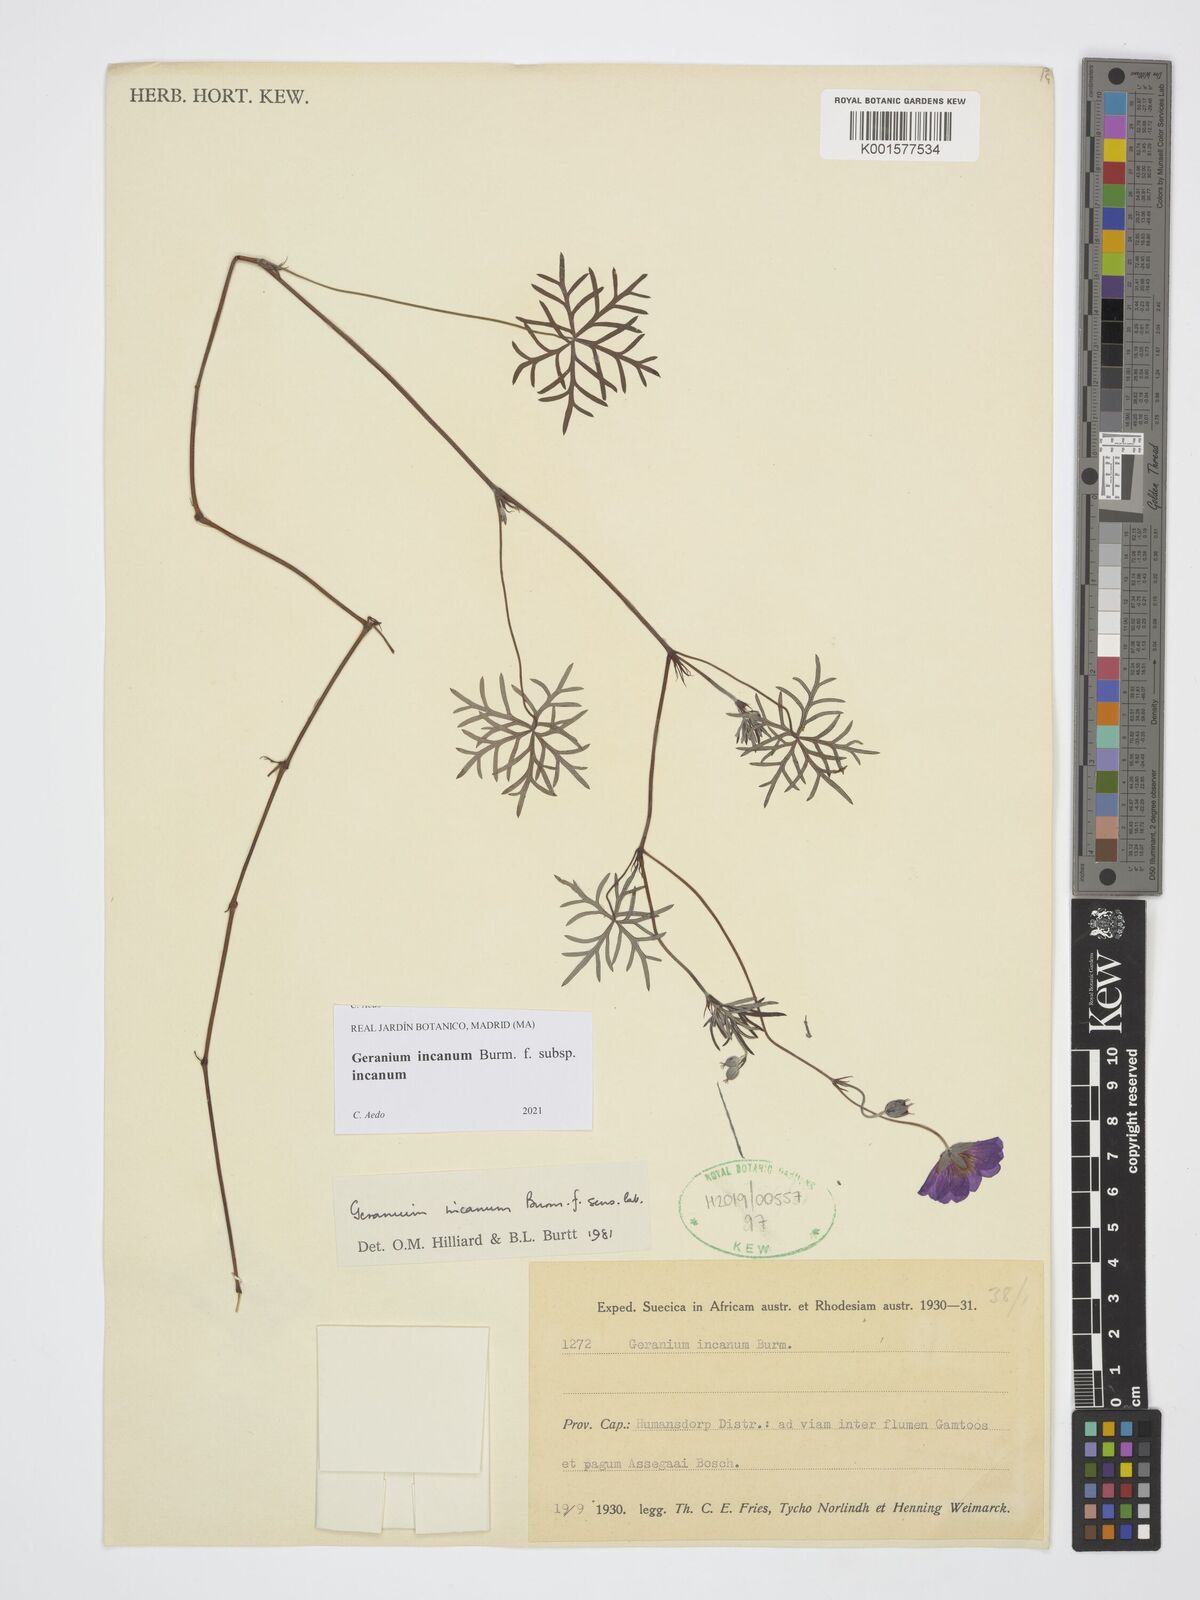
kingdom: Plantae
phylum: Tracheophyta
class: Magnoliopsida
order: Geraniales
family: Geraniaceae
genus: Geranium
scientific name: Geranium incanum
